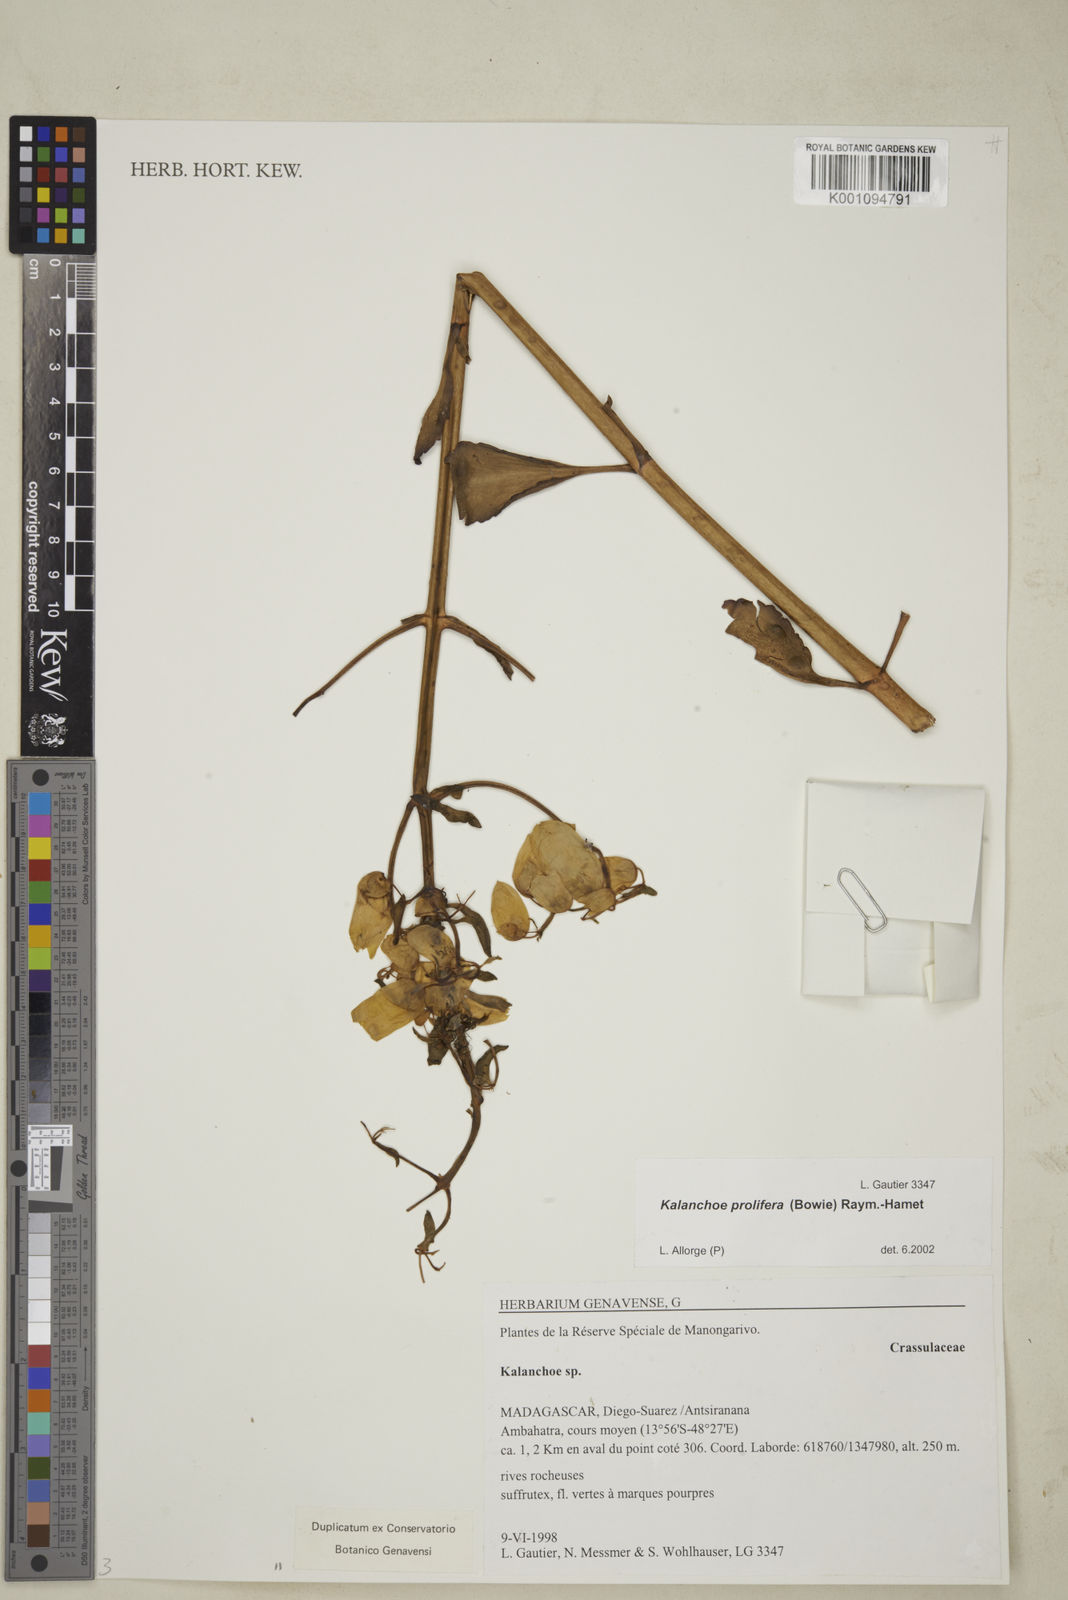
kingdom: Plantae
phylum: Tracheophyta
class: Magnoliopsida
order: Saxifragales
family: Crassulaceae
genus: Kalanchoe
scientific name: Kalanchoe prolifera
